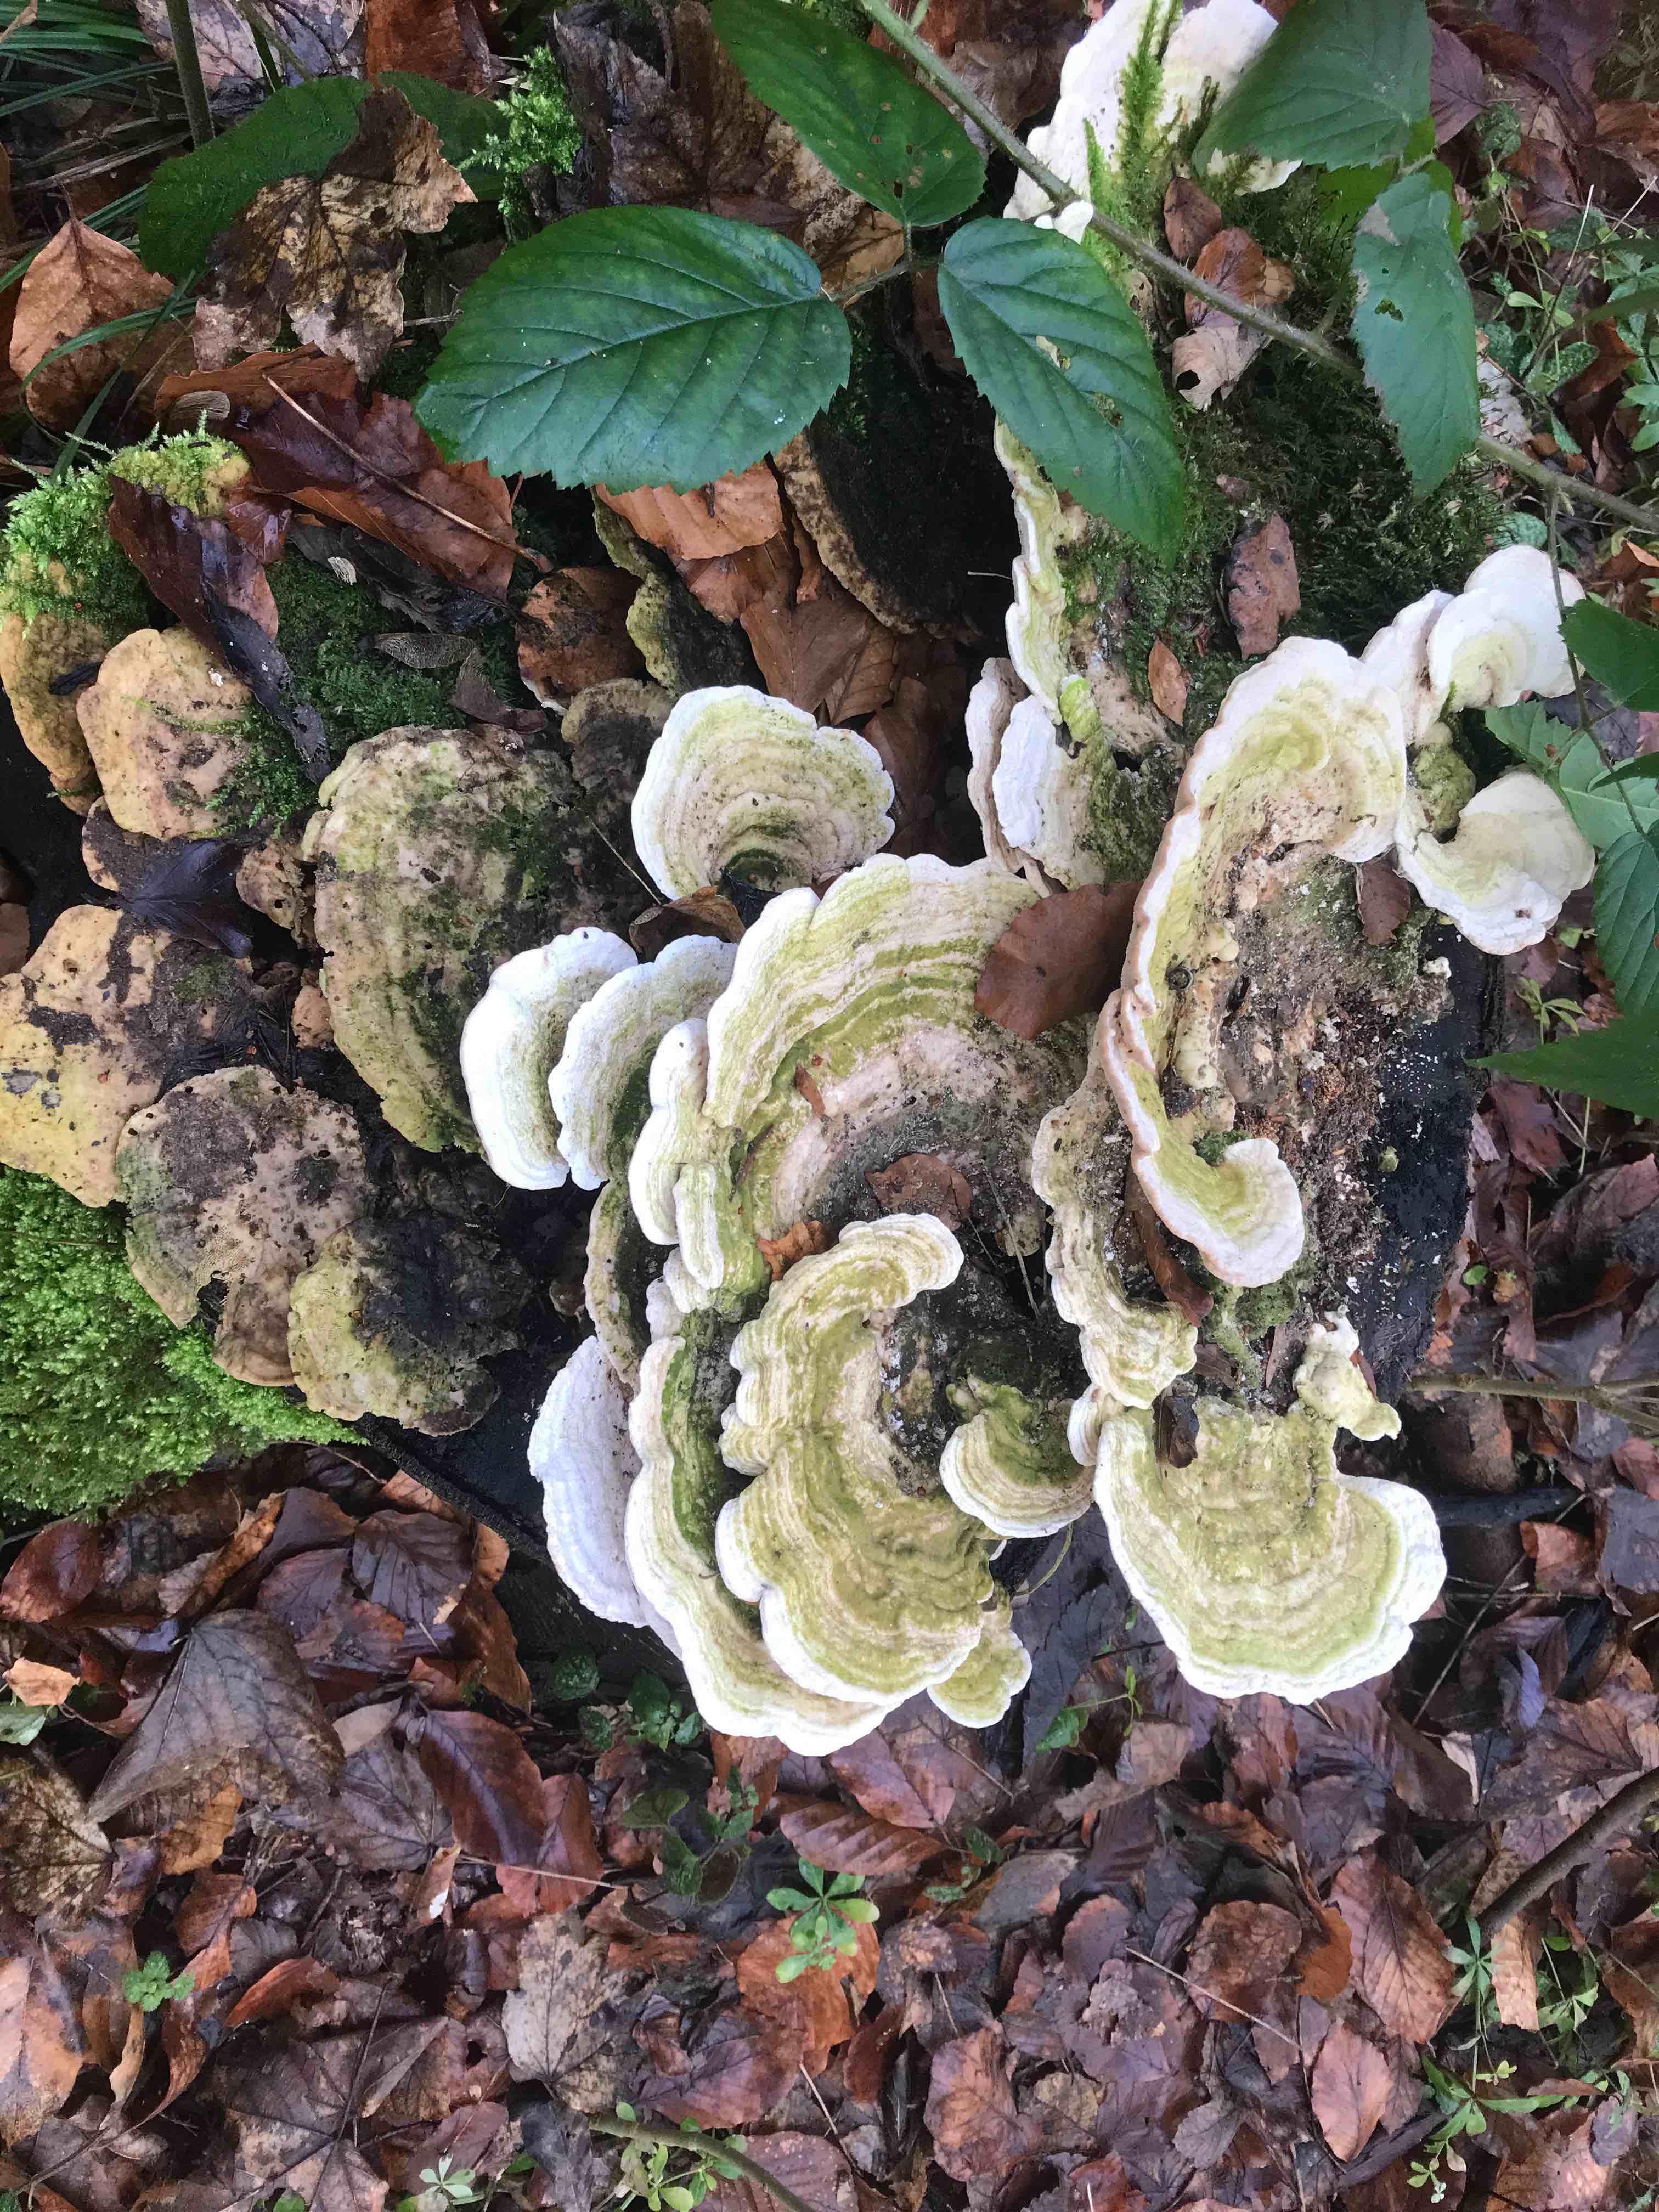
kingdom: Fungi
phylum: Basidiomycota
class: Agaricomycetes
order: Polyporales
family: Polyporaceae
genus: Trametes
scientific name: Trametes gibbosa
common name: puklet læderporesvamp
